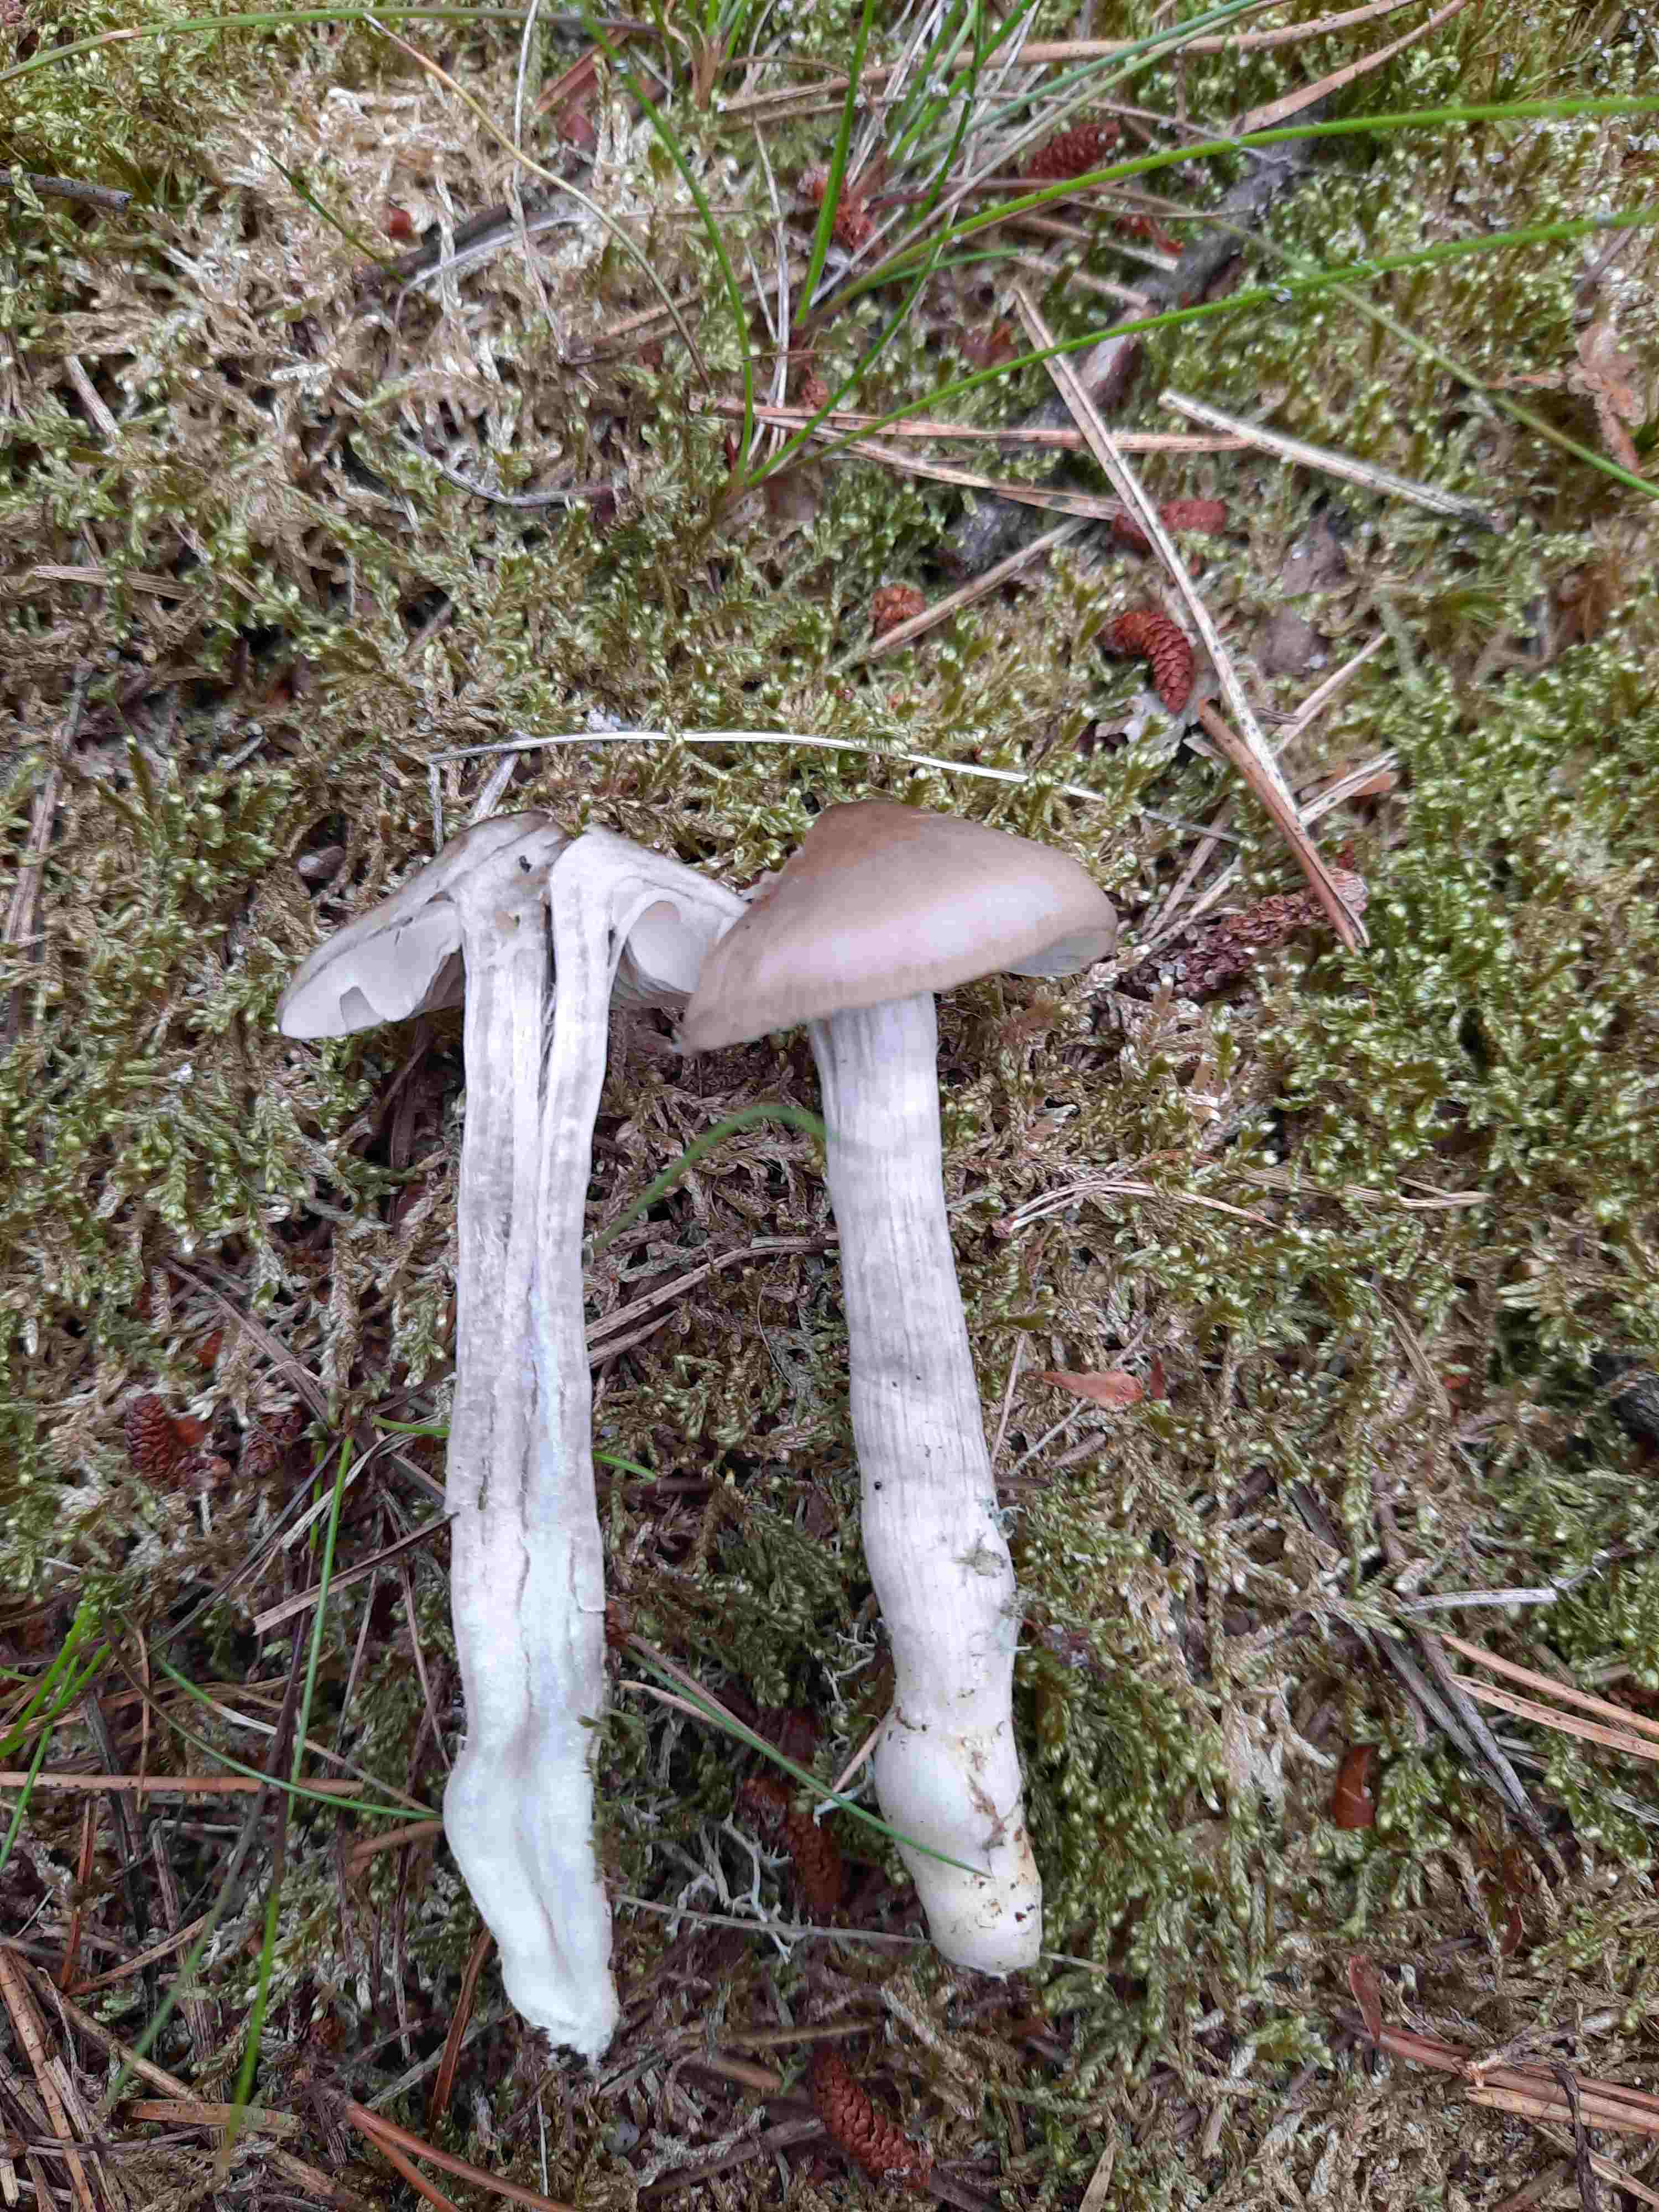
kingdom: Fungi
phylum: Basidiomycota
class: Agaricomycetes
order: Agaricales
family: Entolomataceae
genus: Entocybe
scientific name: Entocybe turbida
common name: plantage-rødblad
